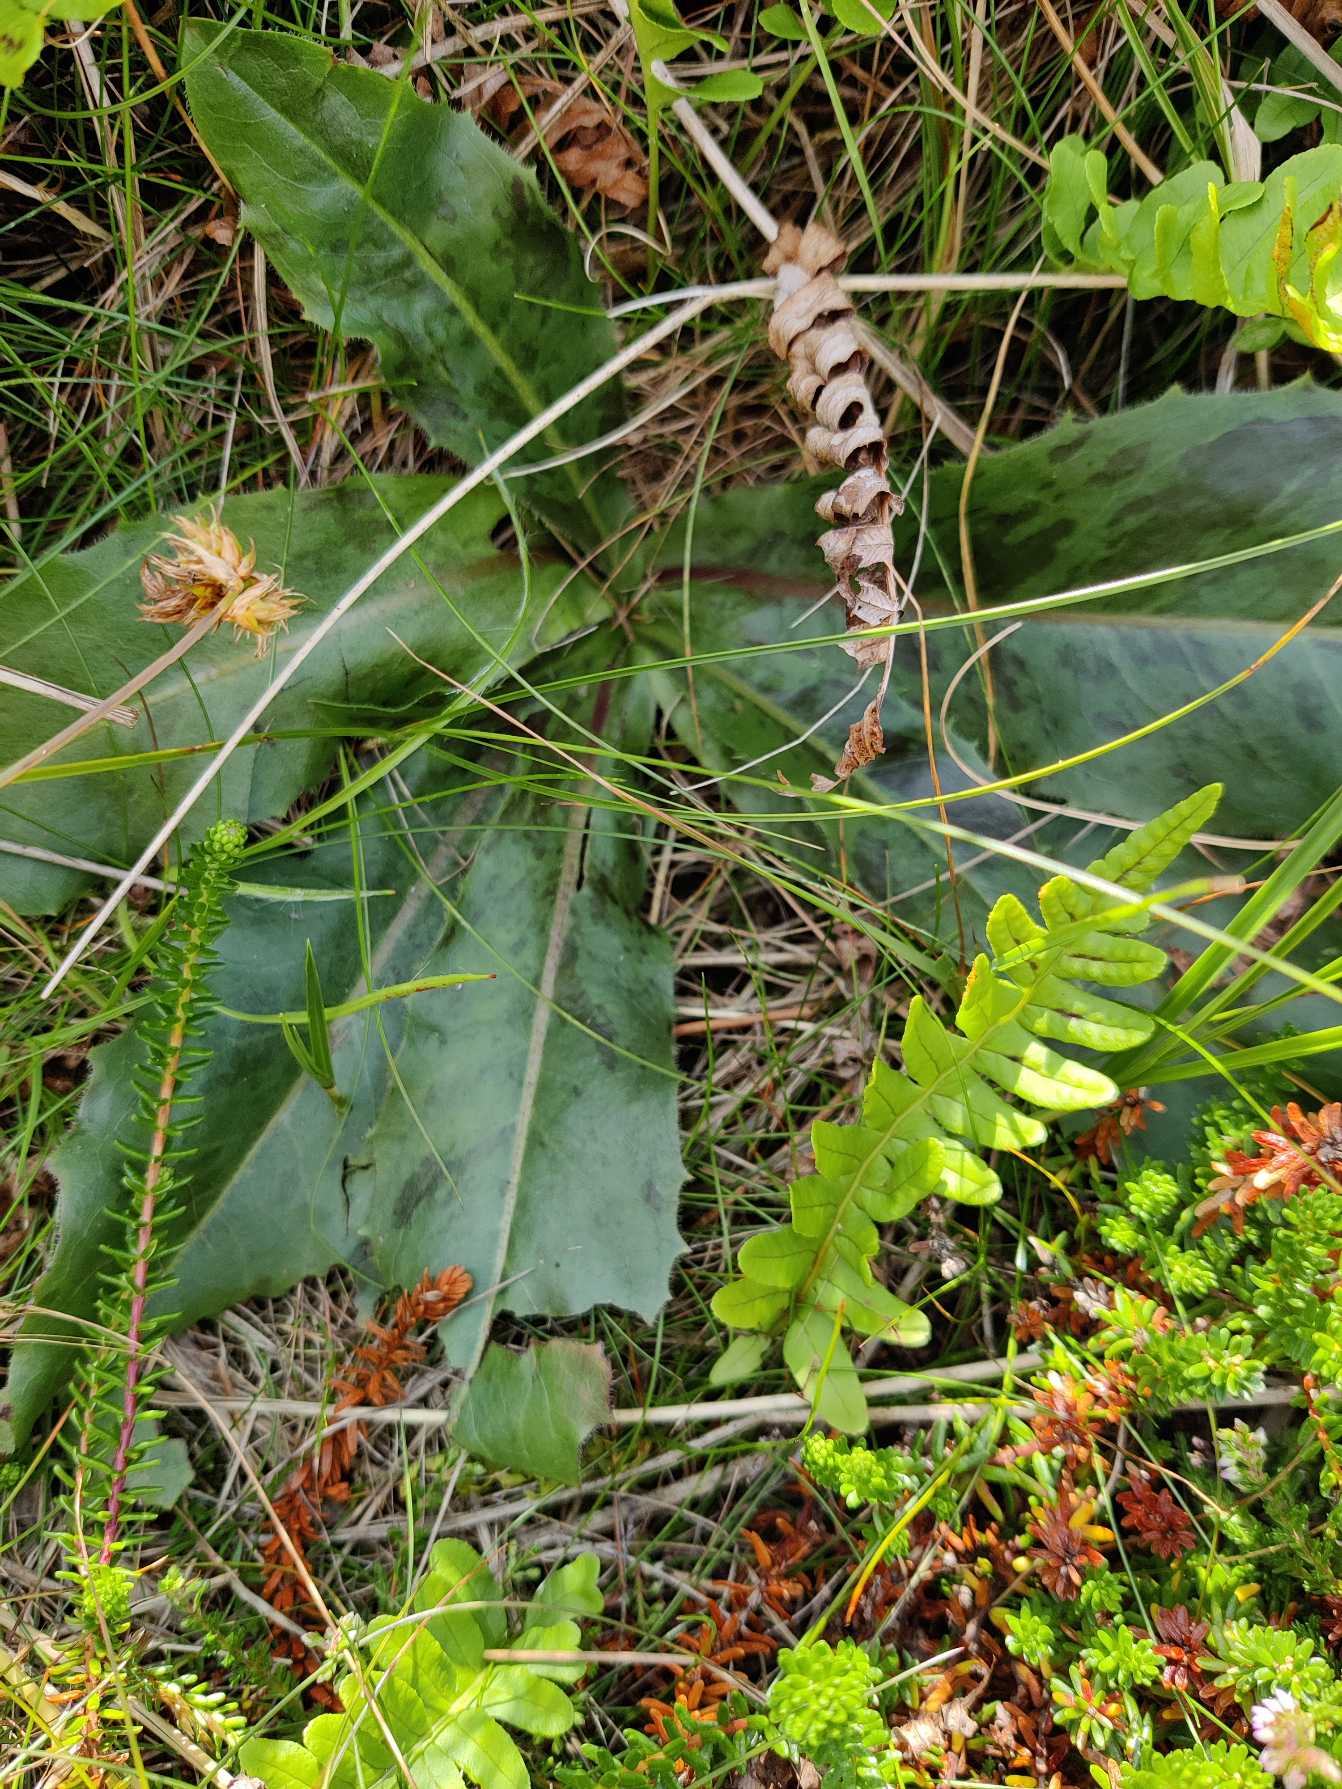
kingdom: Plantae
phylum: Tracheophyta
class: Magnoliopsida
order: Asterales
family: Asteraceae
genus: Trommsdorffia
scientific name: Trommsdorffia maculata
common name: Plettet kongepen
